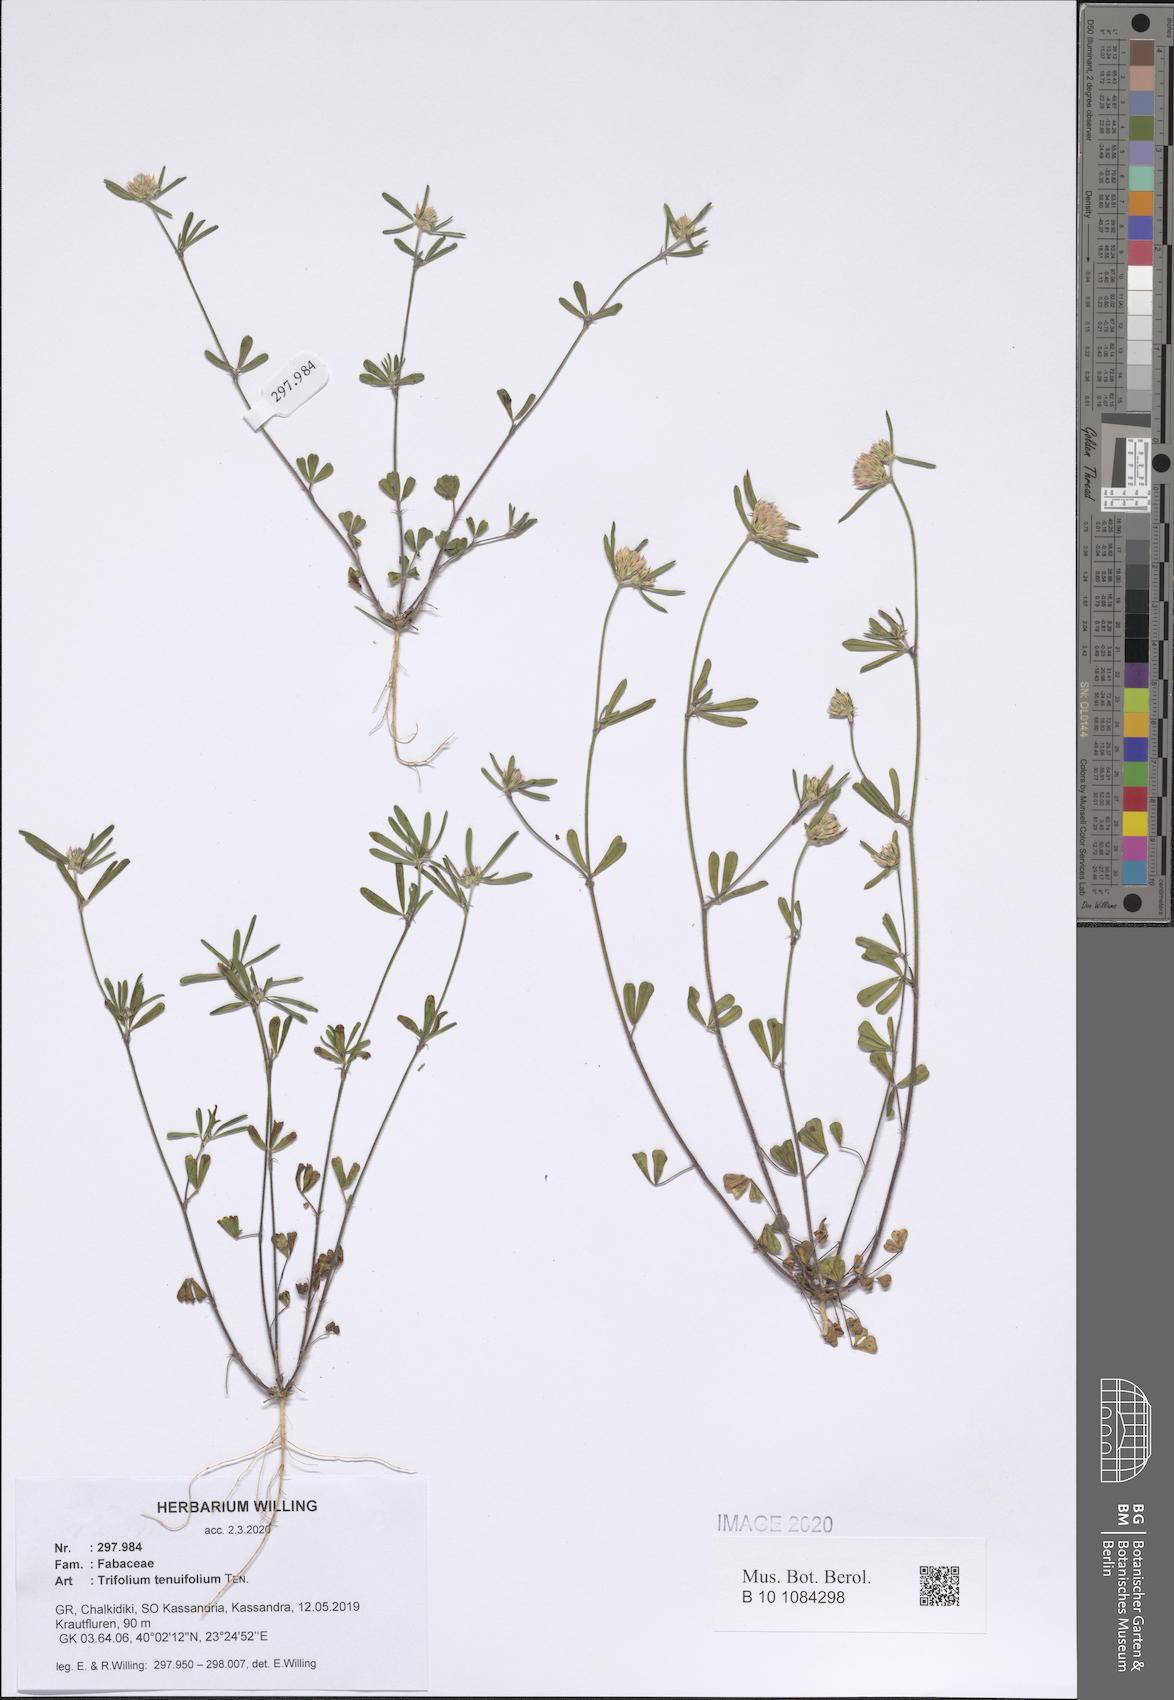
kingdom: Plantae
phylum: Tracheophyta
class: Magnoliopsida
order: Fabales
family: Fabaceae
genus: Trifolium
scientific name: Trifolium tenuifolium
